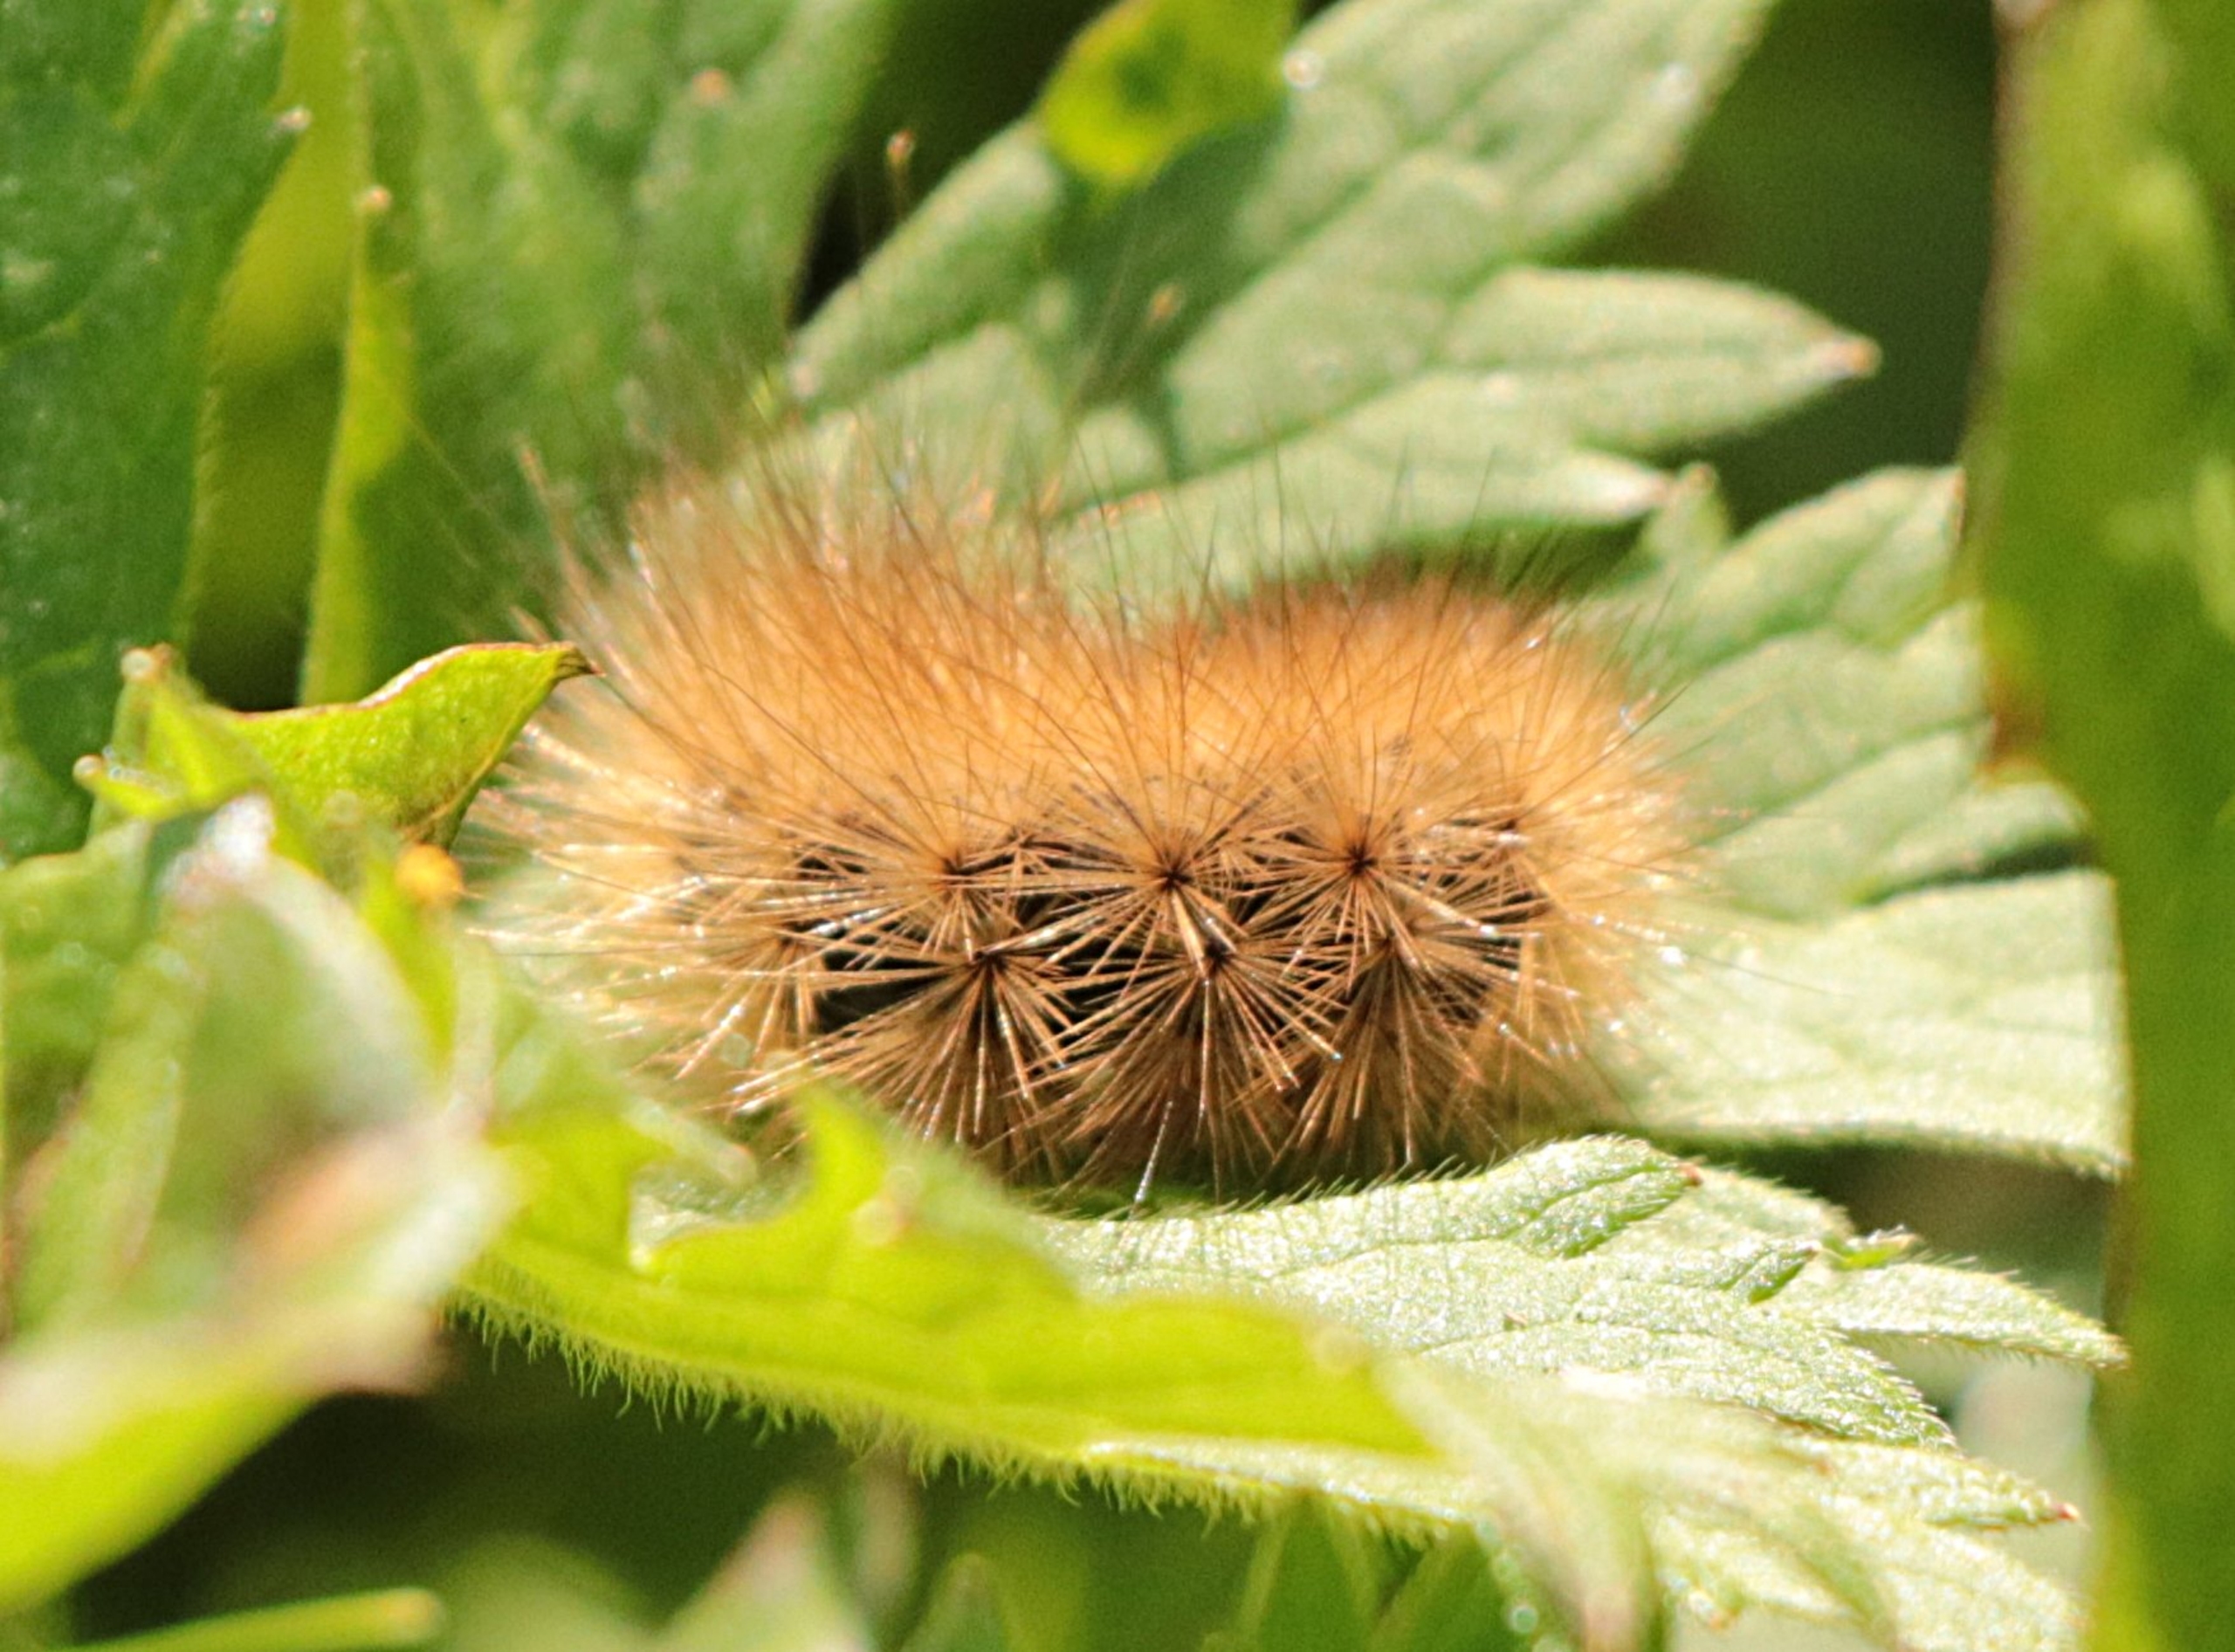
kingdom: Animalia
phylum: Arthropoda
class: Insecta
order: Lepidoptera
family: Erebidae
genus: Phragmatobia
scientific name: Phragmatobia fuliginosa
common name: Kanelbjørn
